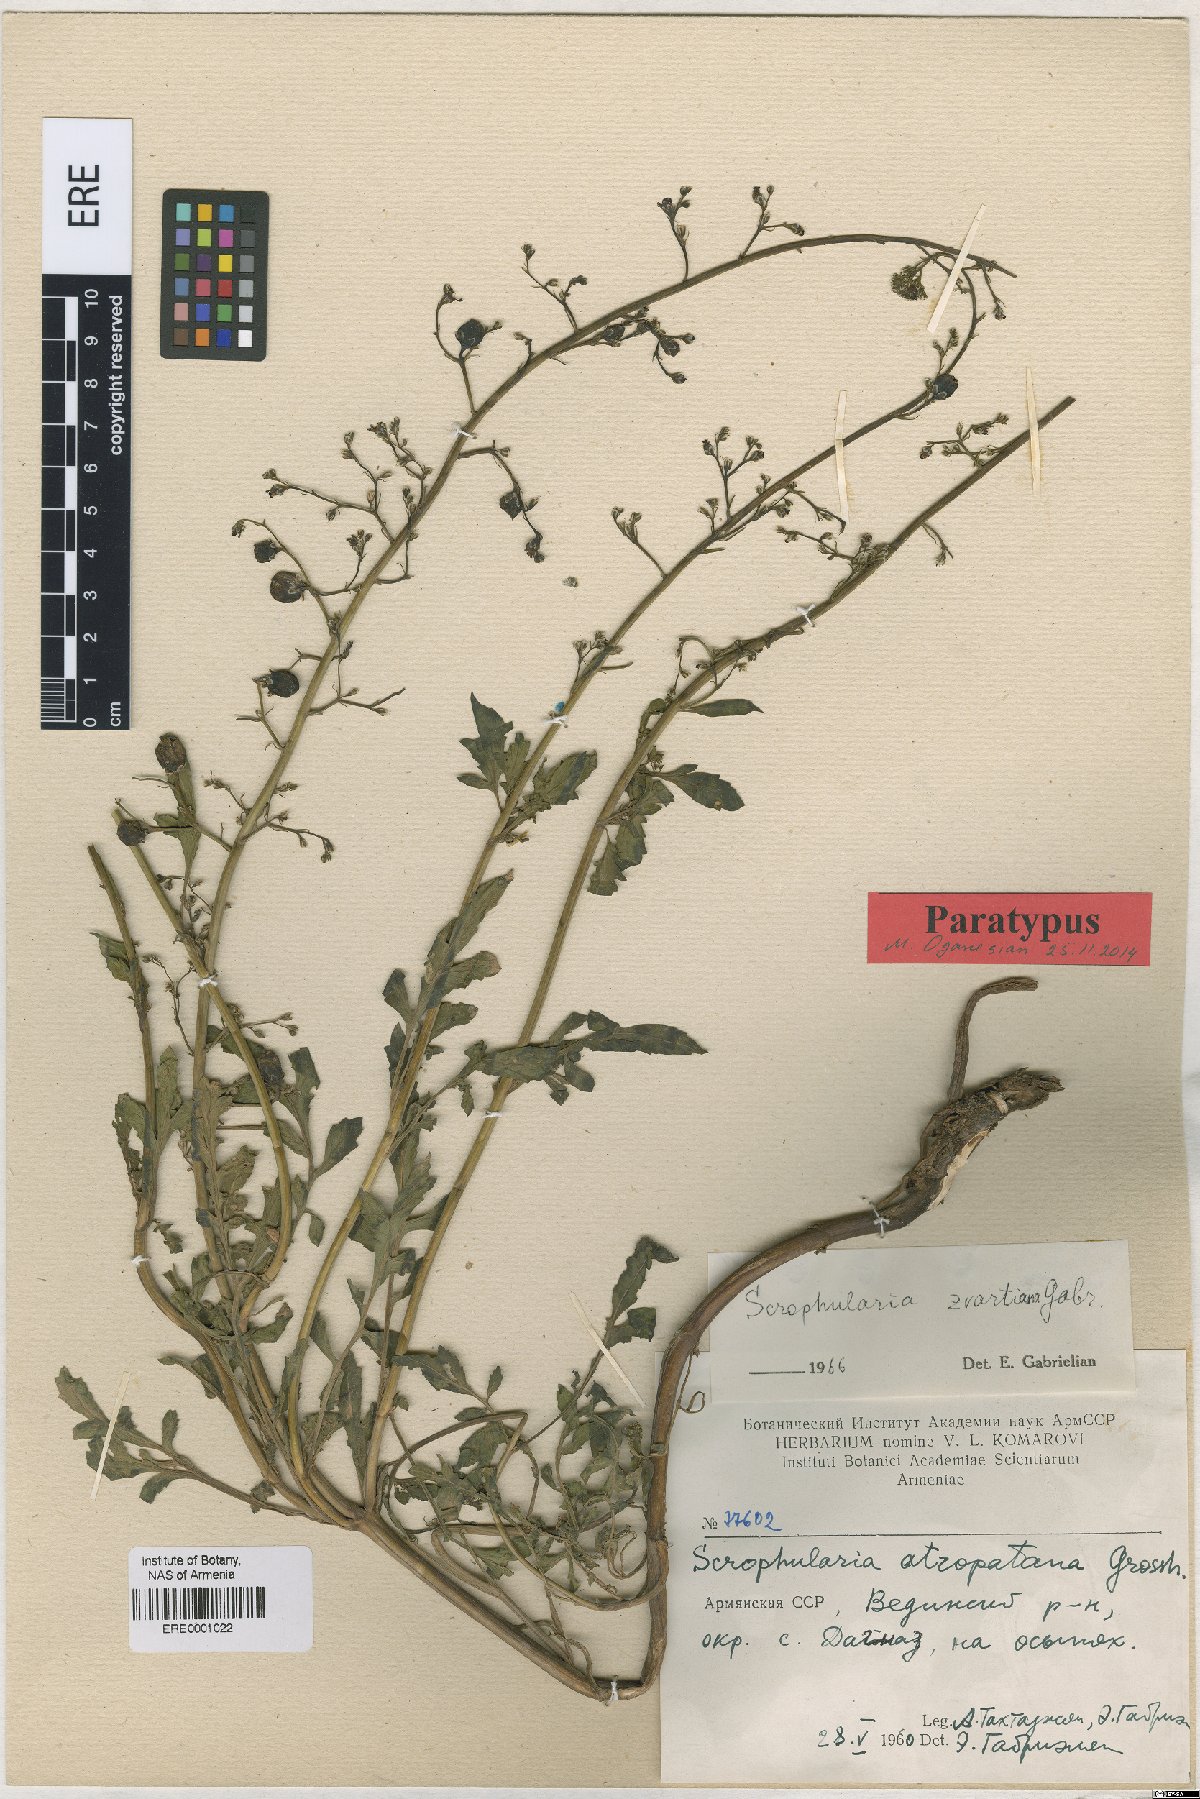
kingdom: Plantae
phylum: Tracheophyta
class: Magnoliopsida
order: Lamiales
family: Scrophulariaceae
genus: Scrophularia
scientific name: Scrophularia zvartiana
